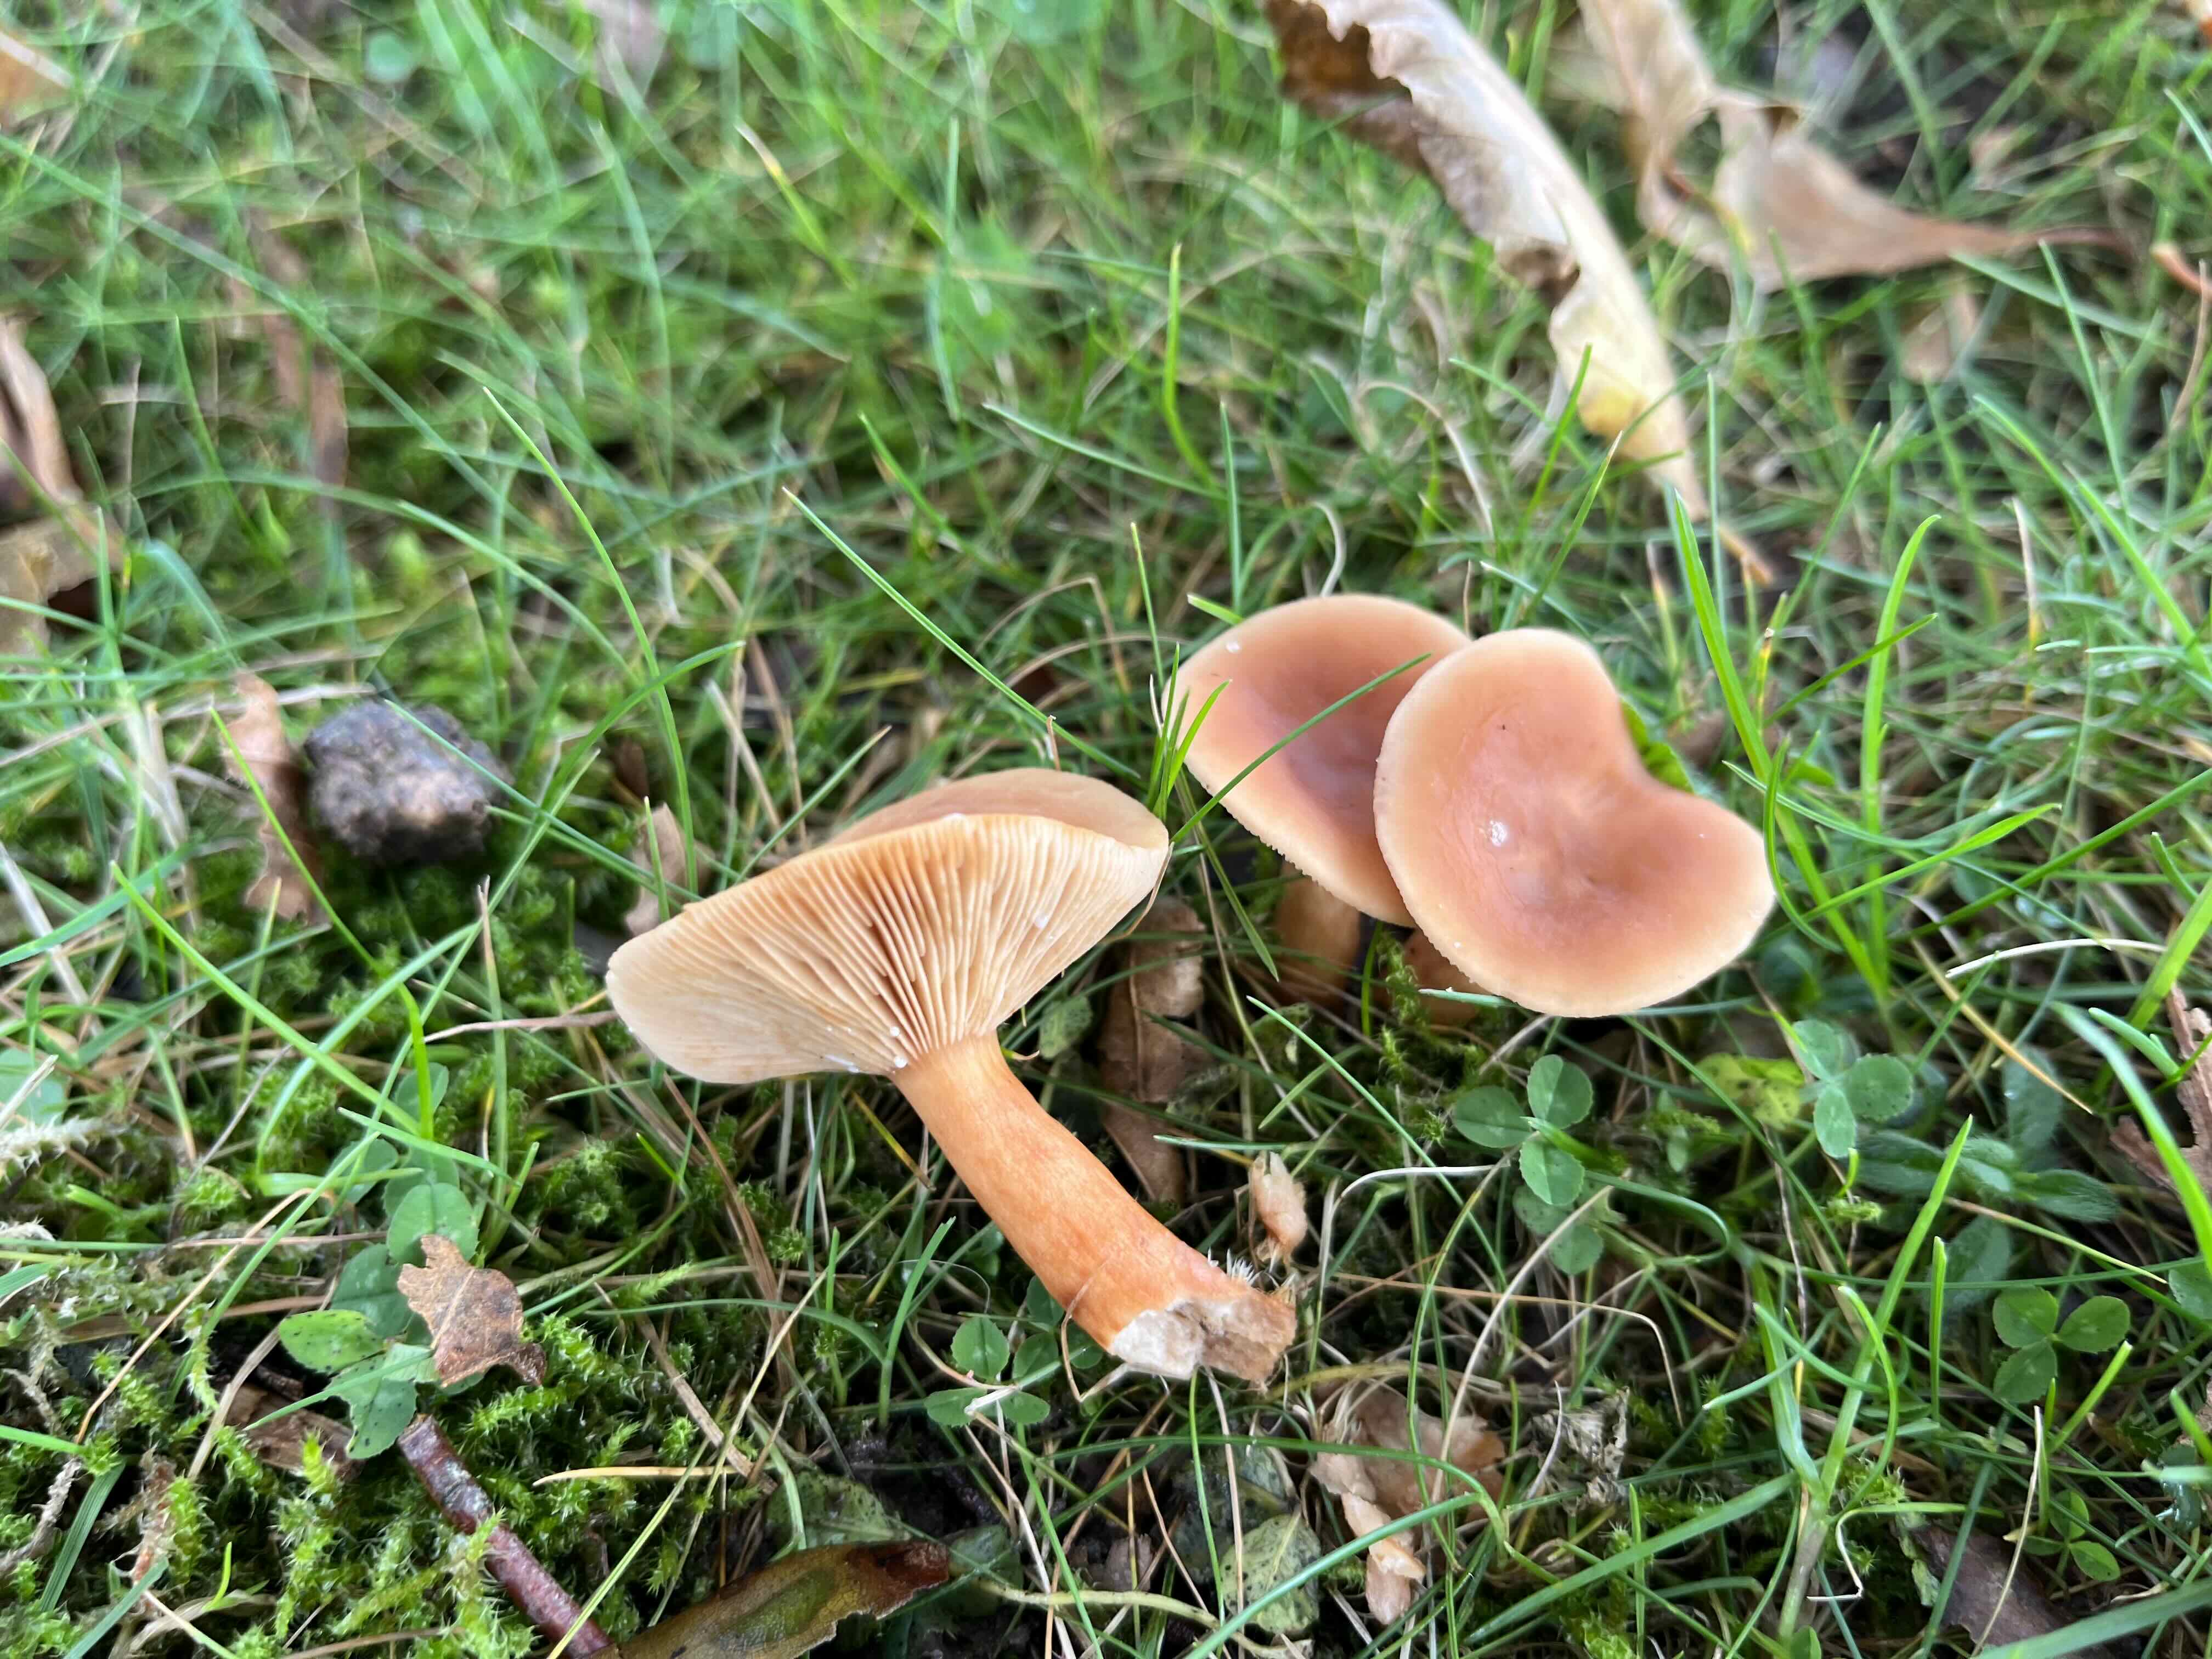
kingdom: Fungi
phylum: Basidiomycota
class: Agaricomycetes
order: Russulales
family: Russulaceae
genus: Lactarius
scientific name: Lactarius subdulcis
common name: sødlig mælkehat
